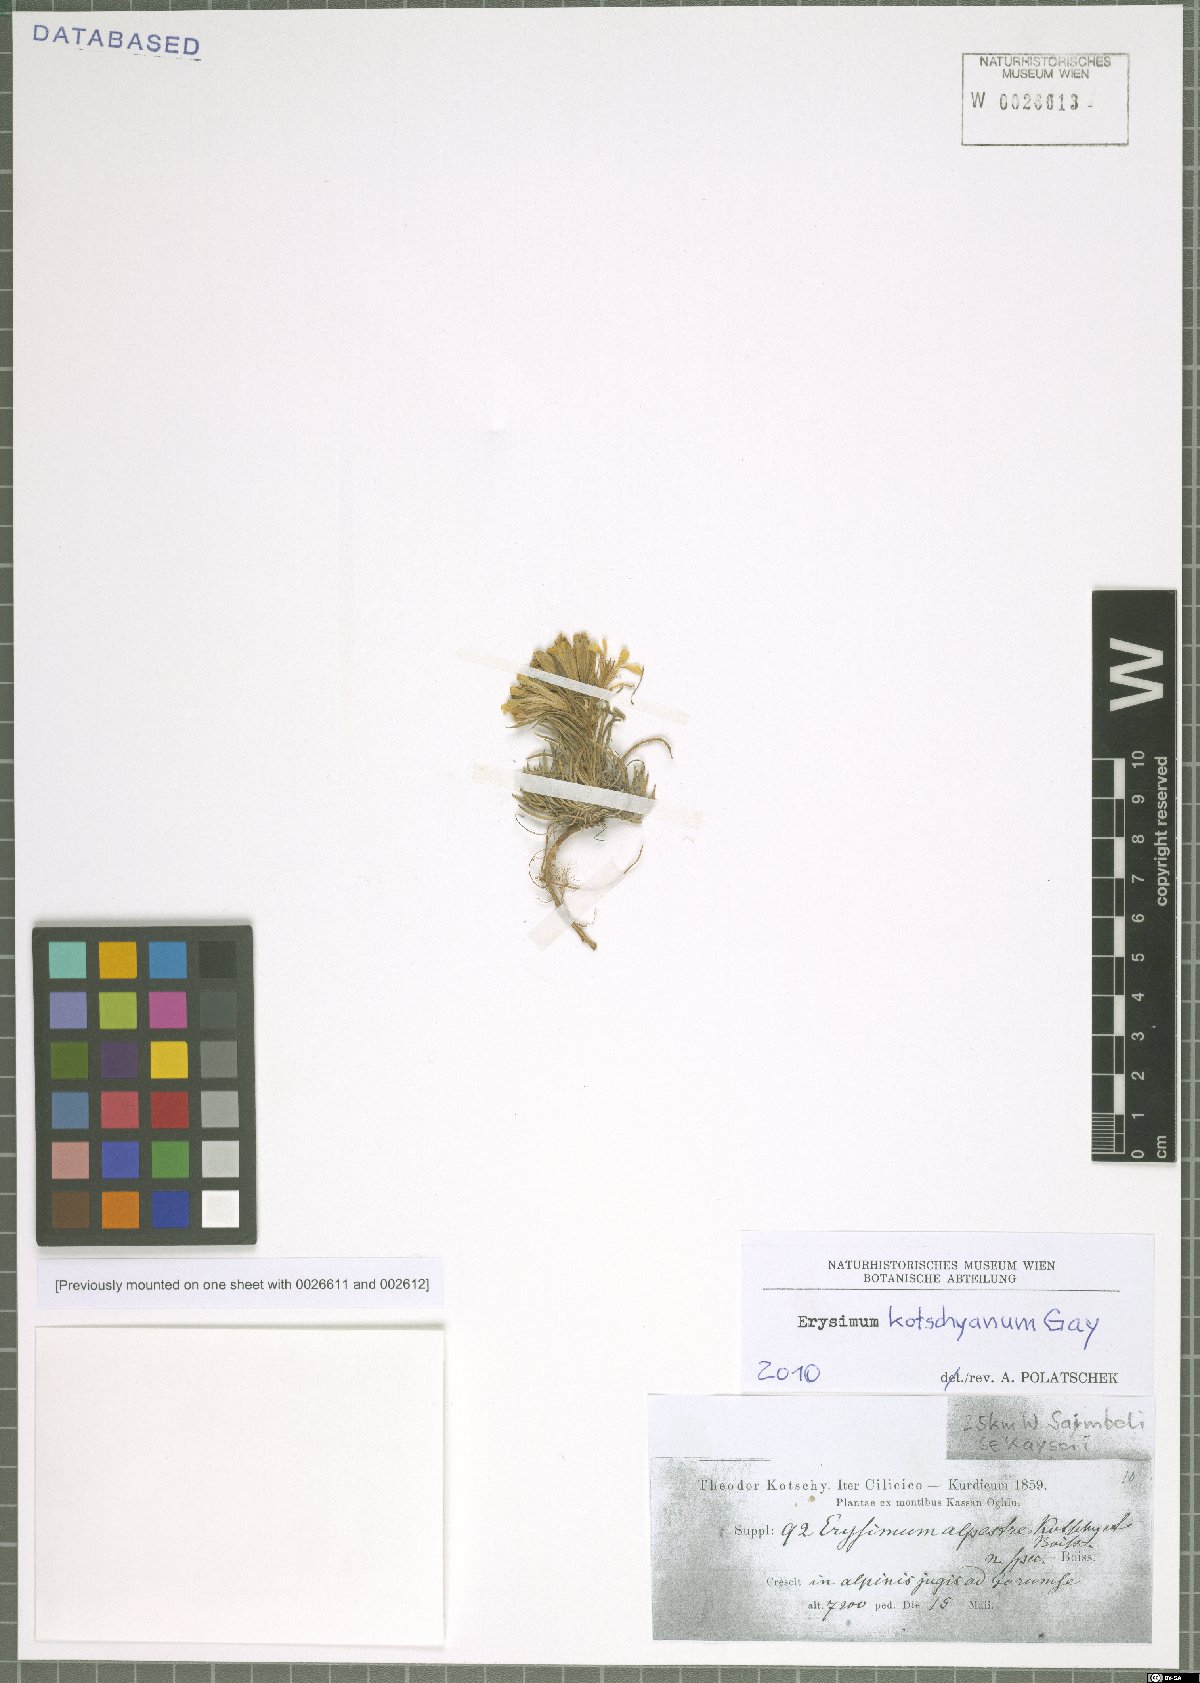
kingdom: Plantae
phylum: Tracheophyta
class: Magnoliopsida
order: Brassicales
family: Brassicaceae
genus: Erysimum
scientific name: Erysimum kotschyanum
